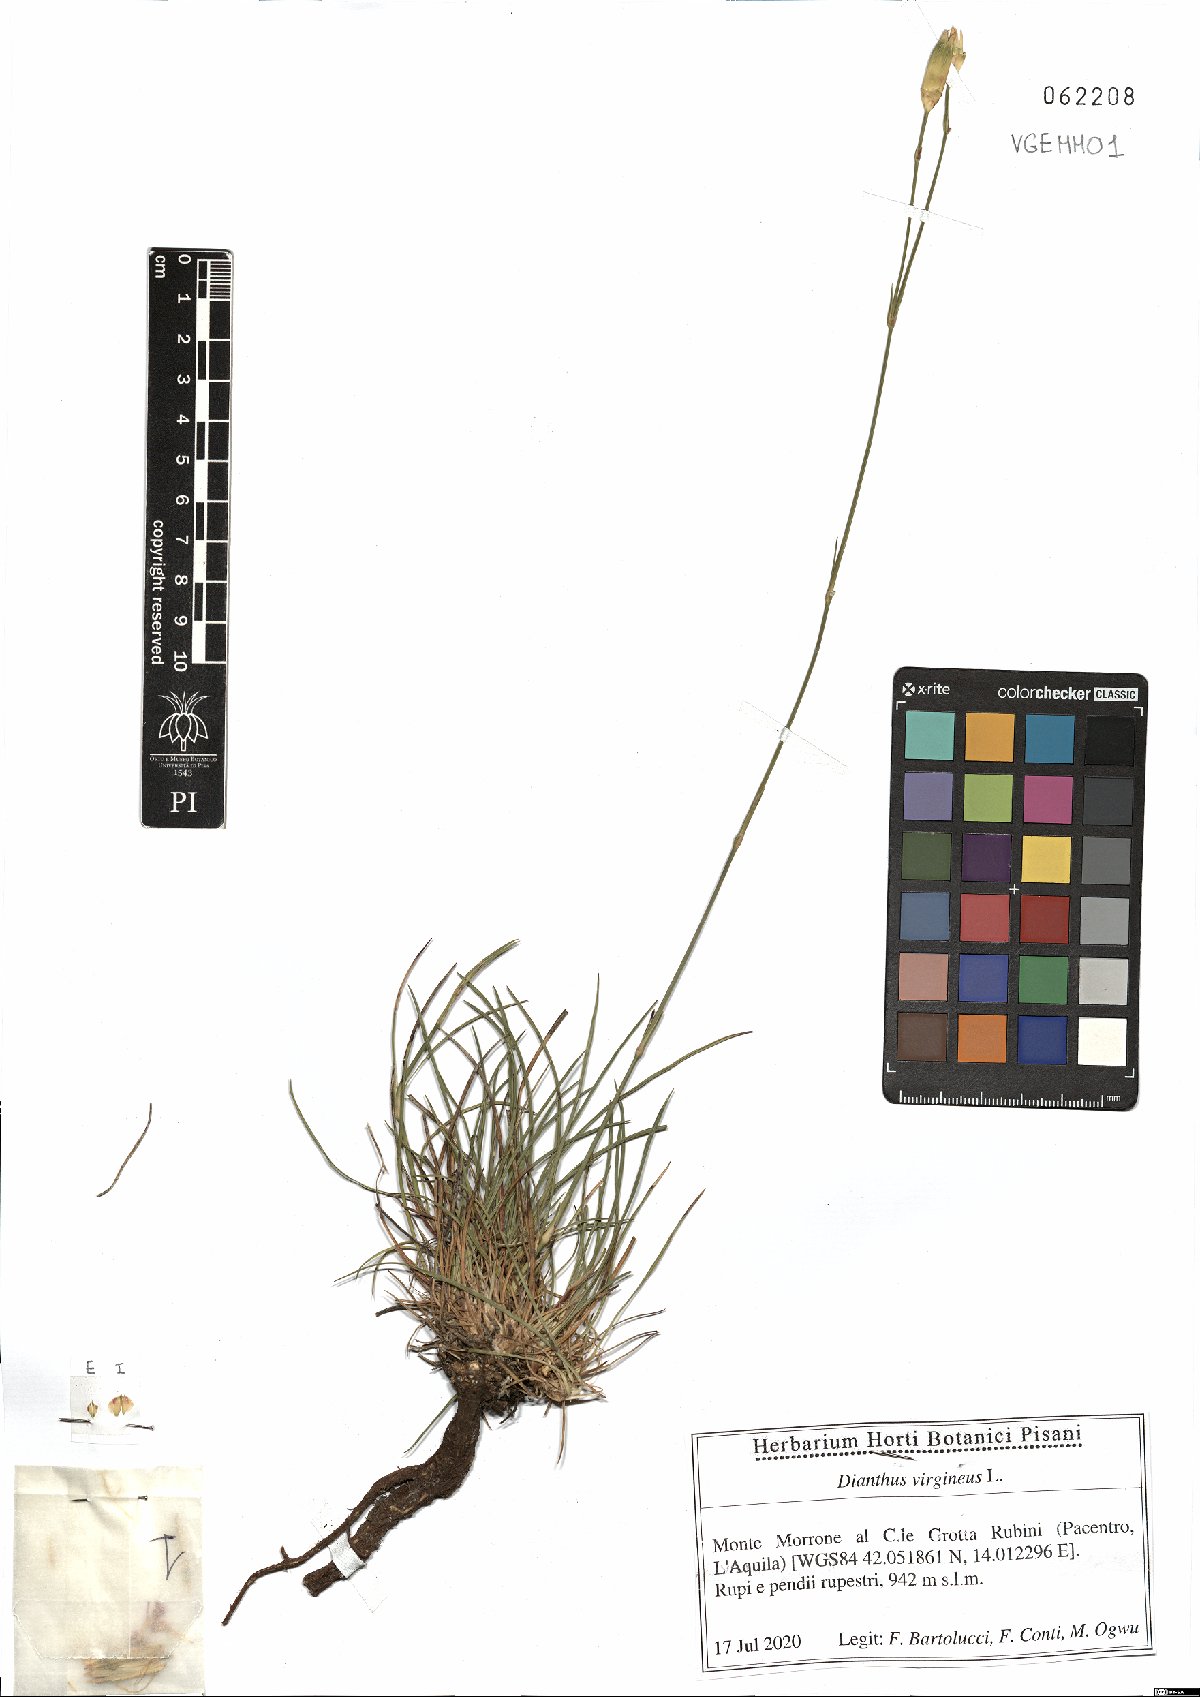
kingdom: Plantae
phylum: Tracheophyta
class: Magnoliopsida
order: Caryophyllales
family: Caryophyllaceae
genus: Dianthus
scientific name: Dianthus virgineus
